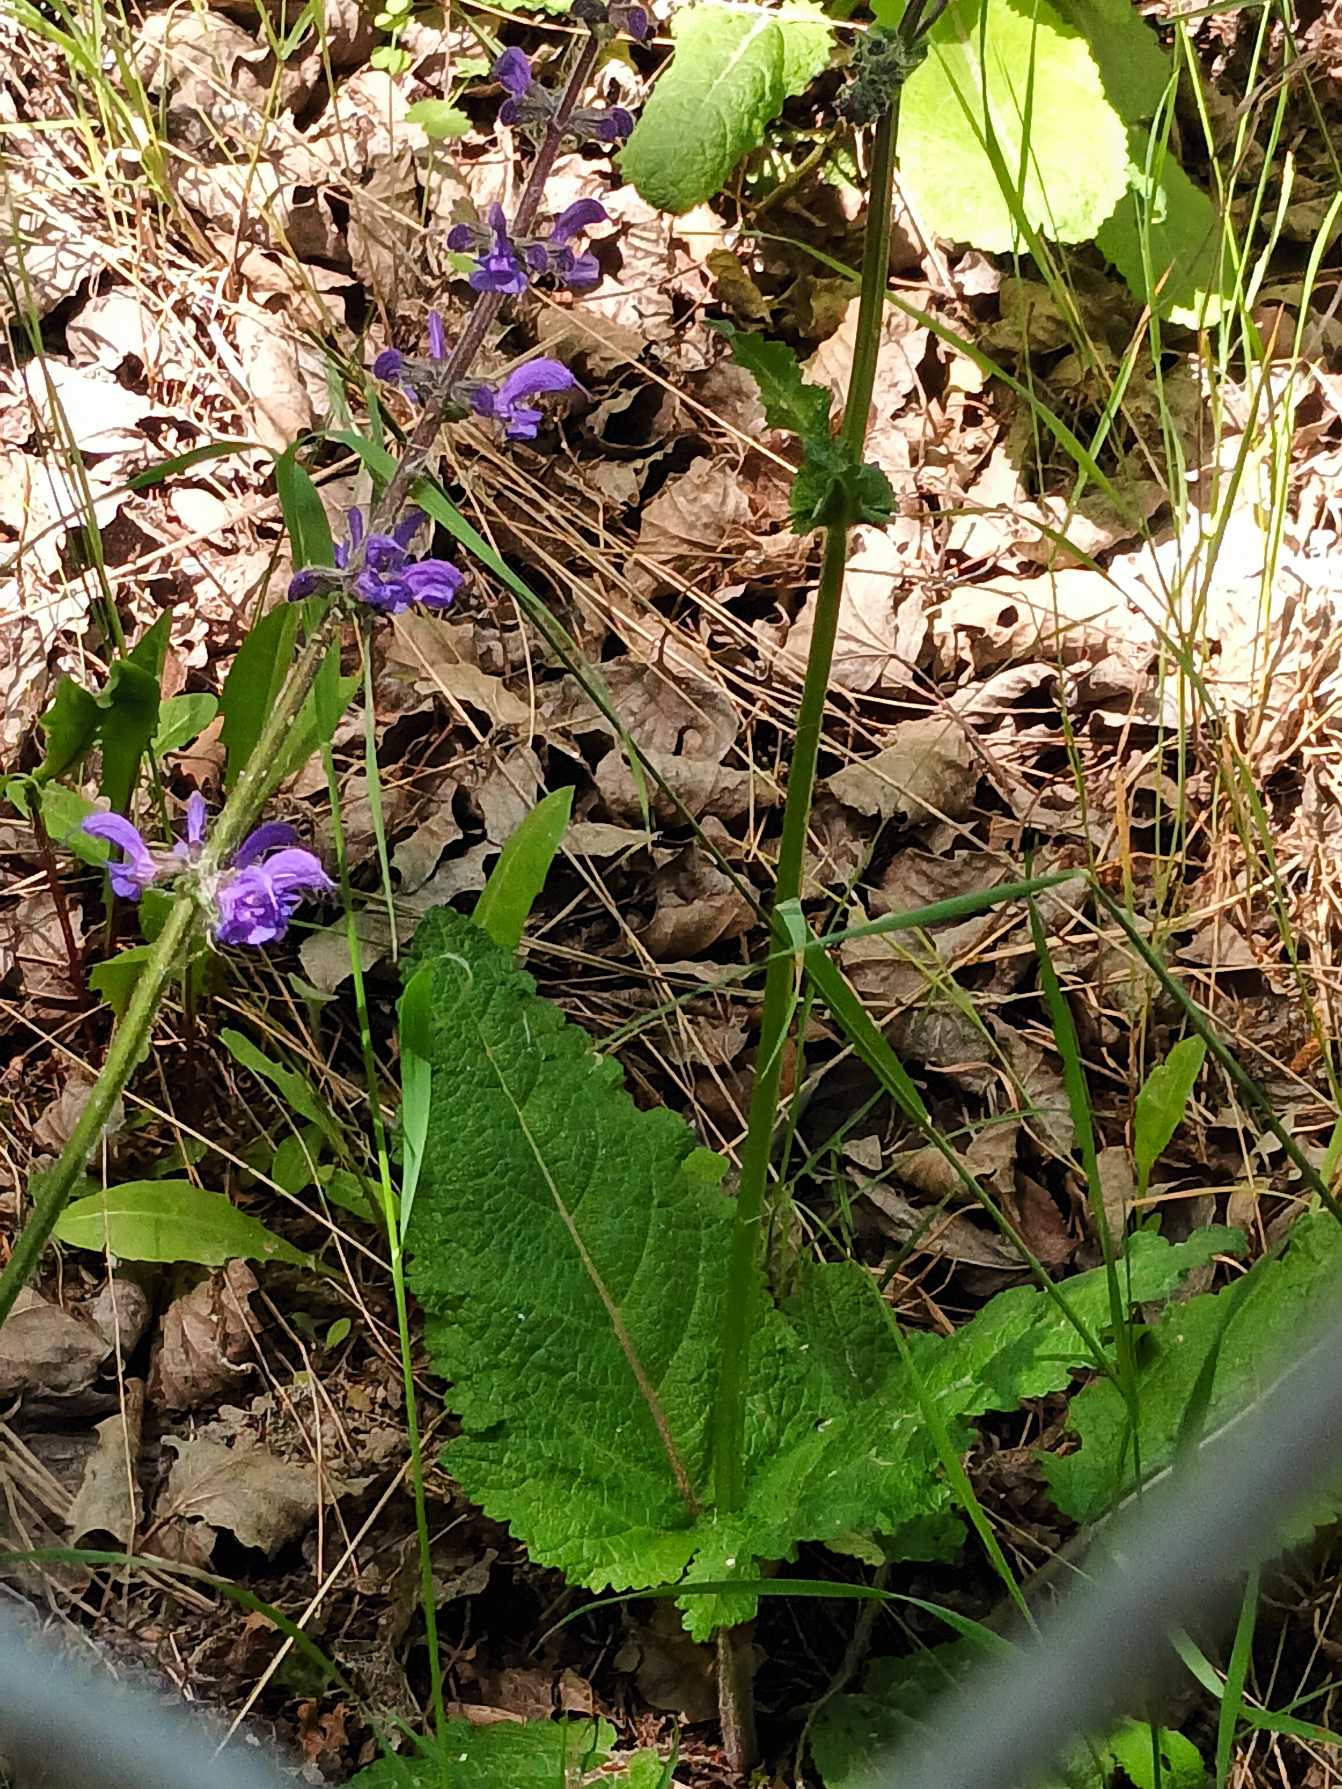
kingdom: Plantae
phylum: Tracheophyta
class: Magnoliopsida
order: Lamiales
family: Lamiaceae
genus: Salvia
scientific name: Salvia pratensis
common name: Eng-salvie
